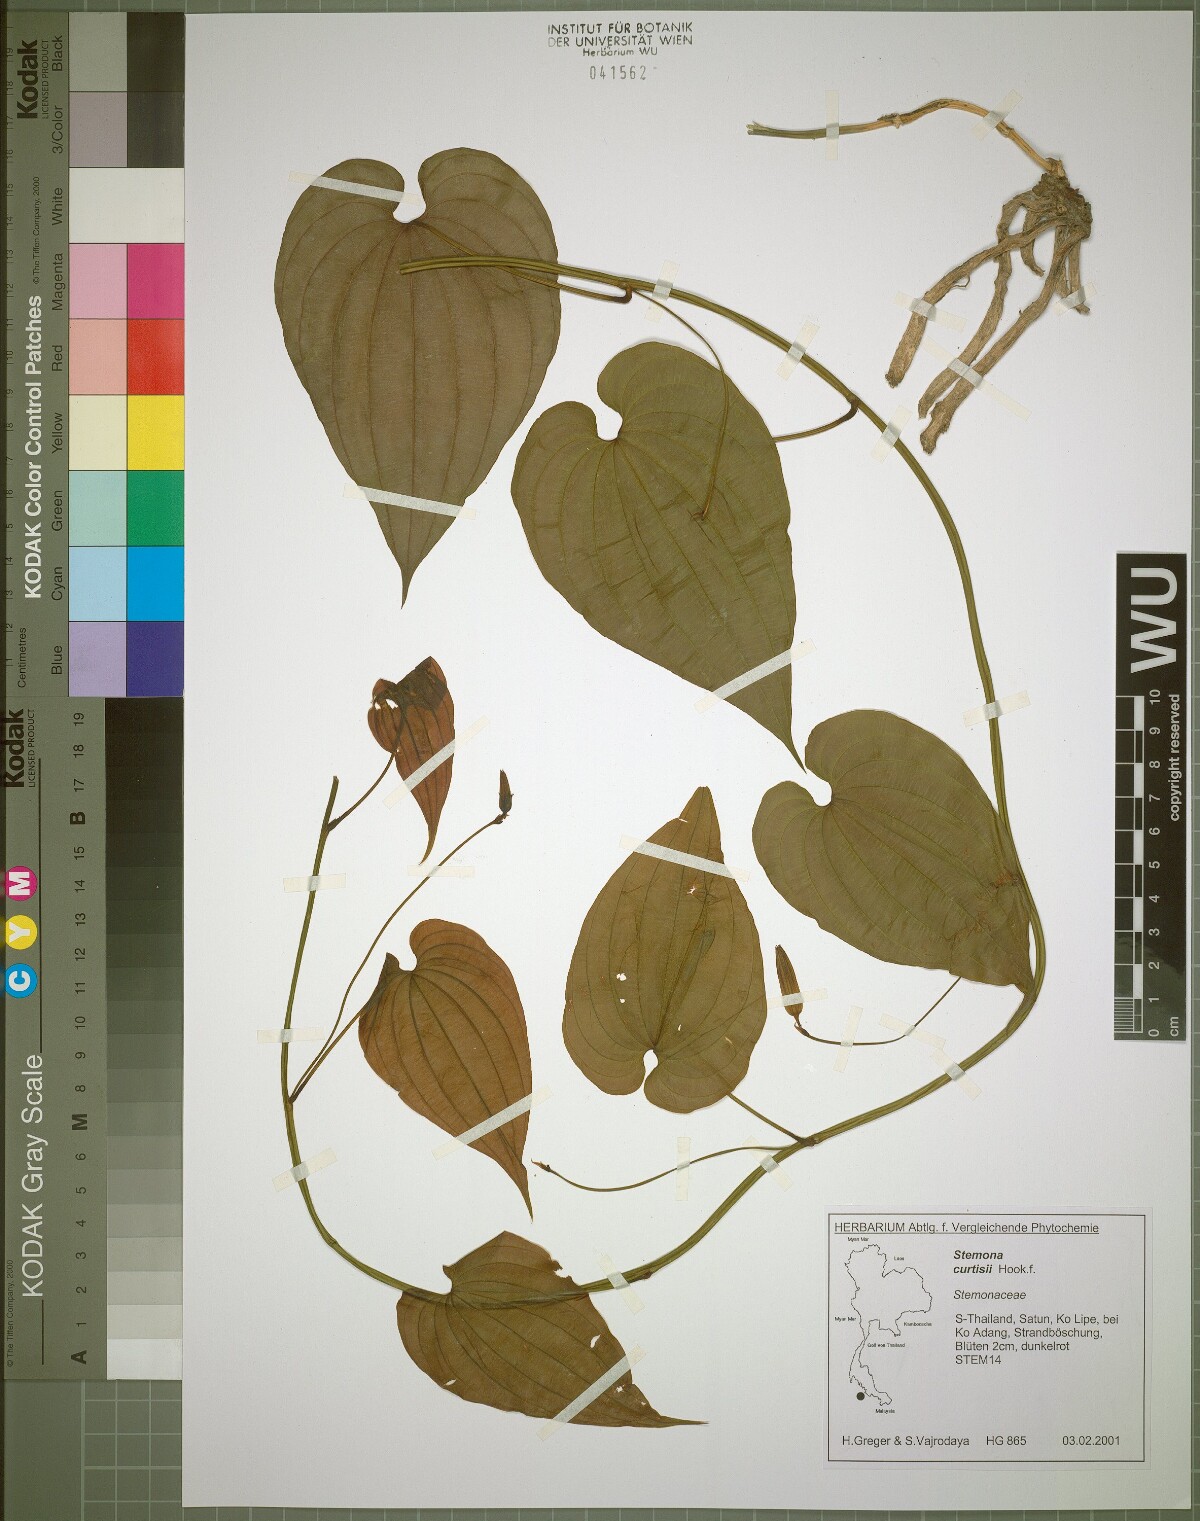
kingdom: Plantae
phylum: Tracheophyta
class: Liliopsida
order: Pandanales
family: Stemonaceae
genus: Stemona
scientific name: Stemona curtisii
